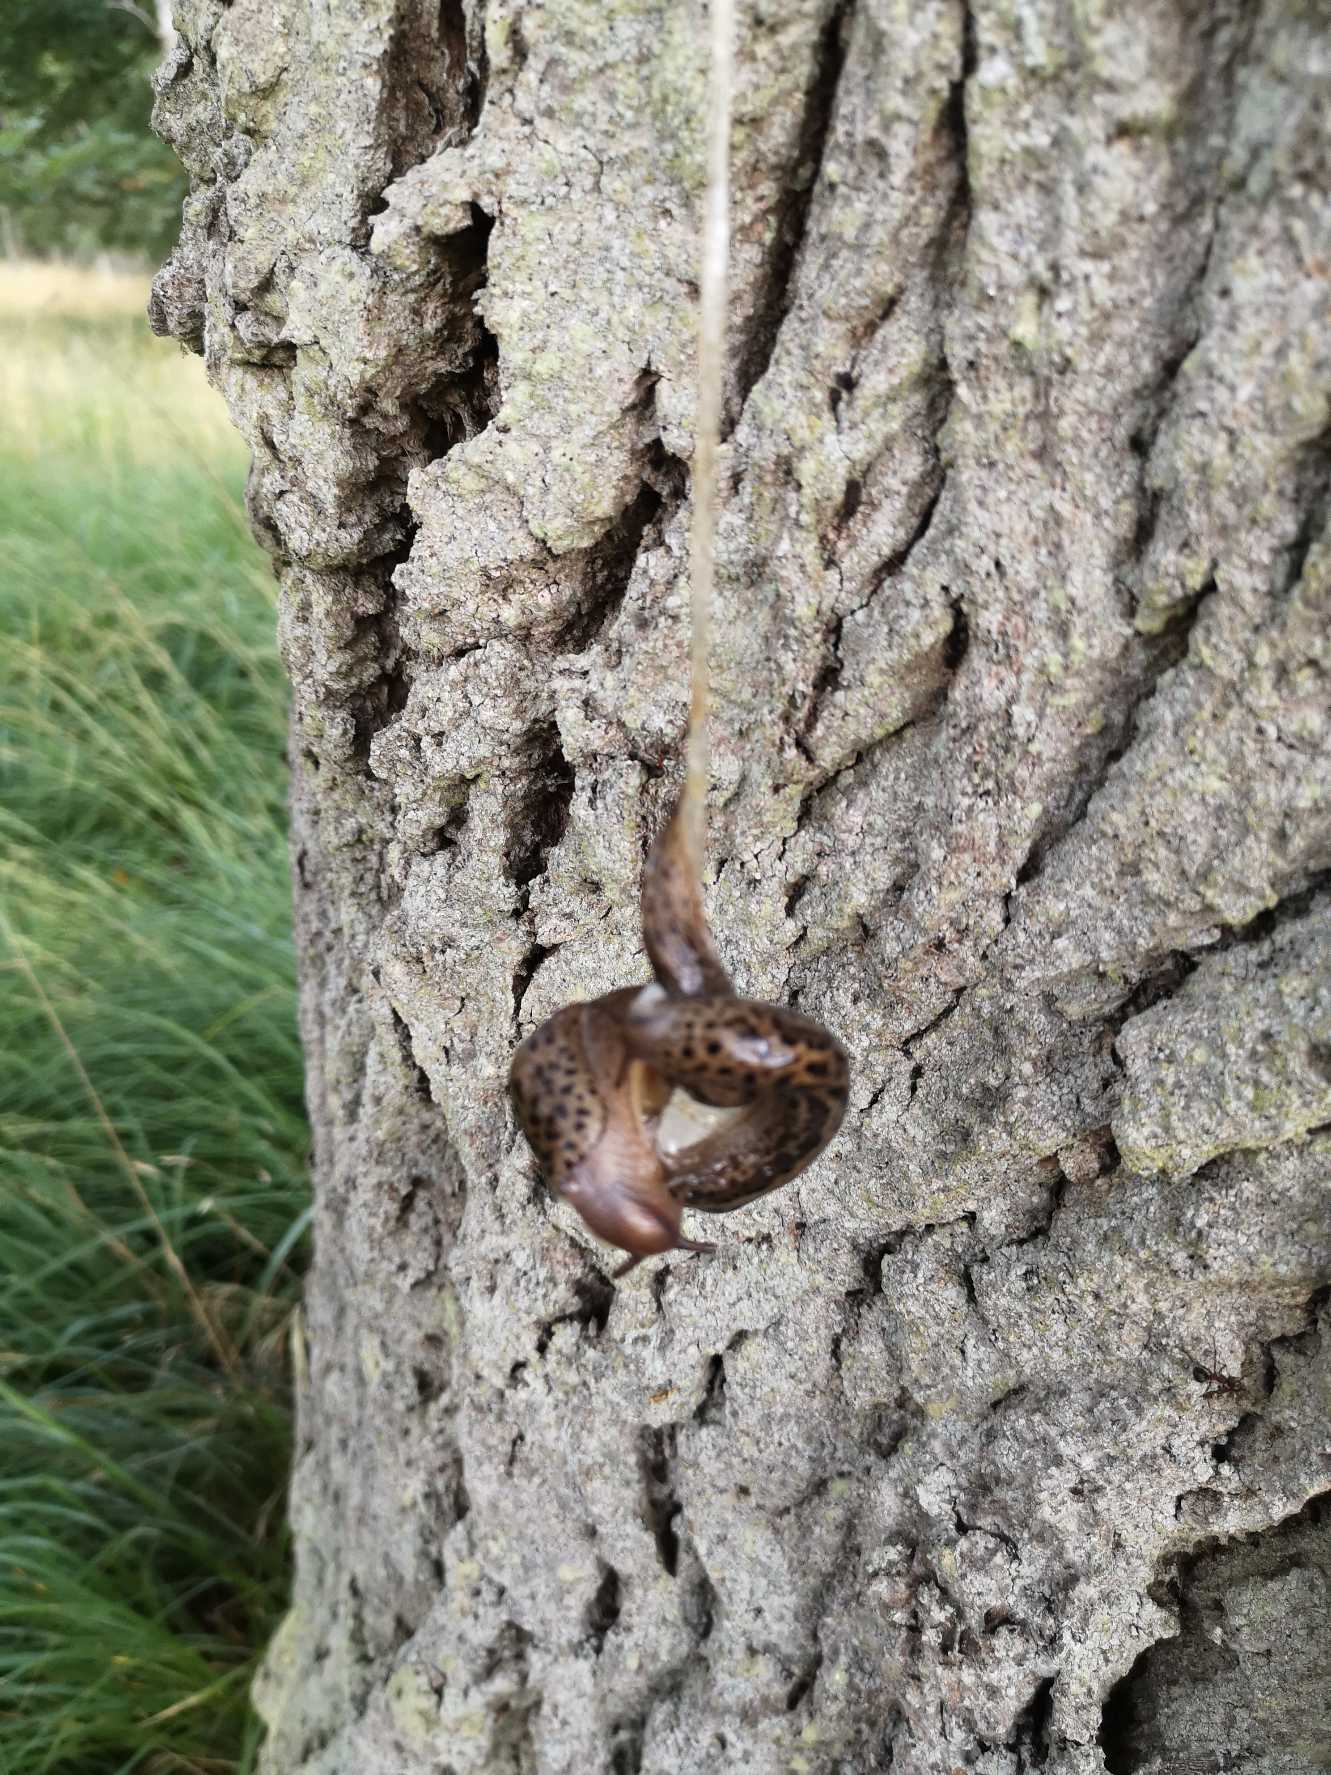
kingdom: Animalia
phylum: Mollusca
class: Gastropoda
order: Stylommatophora
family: Limacidae
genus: Limax
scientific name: Limax maximus
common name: Pantersnegl
